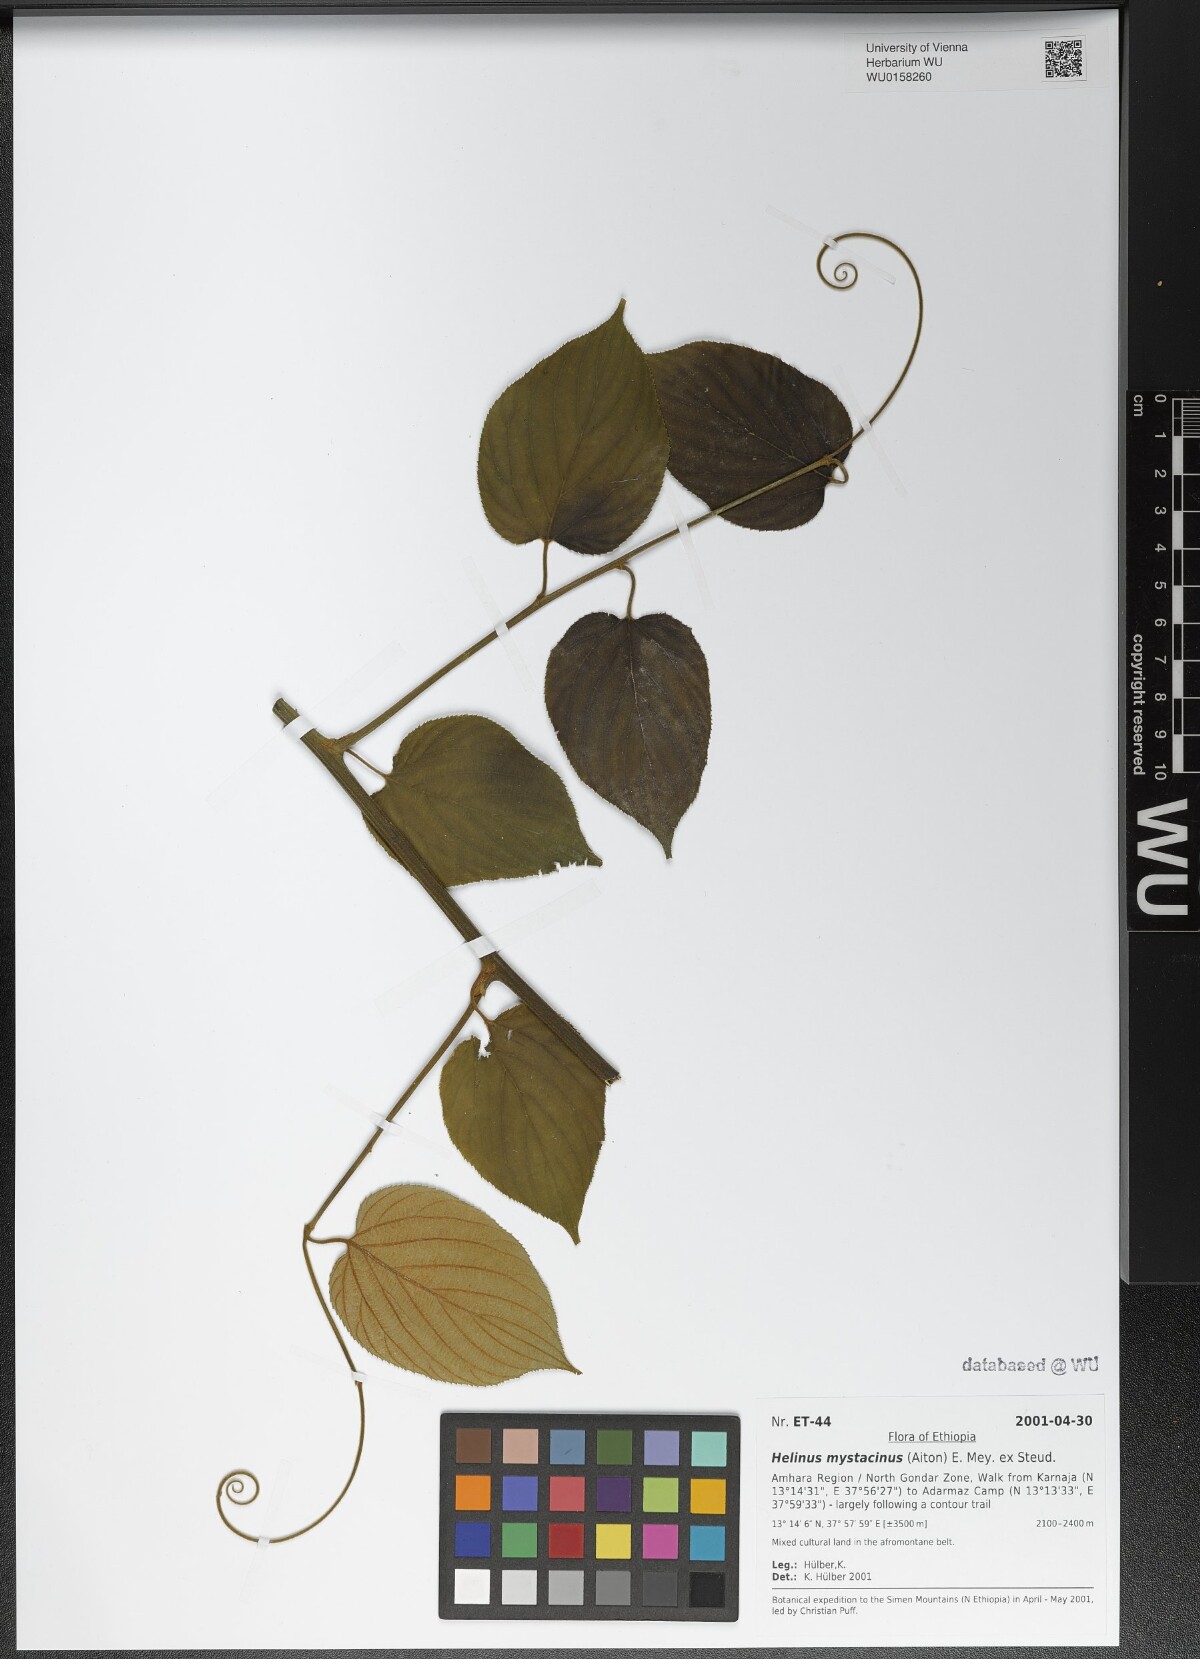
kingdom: Plantae
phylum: Tracheophyta
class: Magnoliopsida
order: Rosales
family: Rhamnaceae
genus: Helinus
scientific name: Helinus mystacinus
